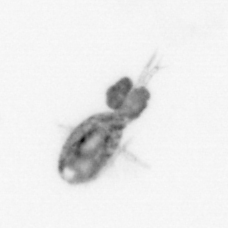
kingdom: Animalia
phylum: Arthropoda
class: Copepoda
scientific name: Copepoda
